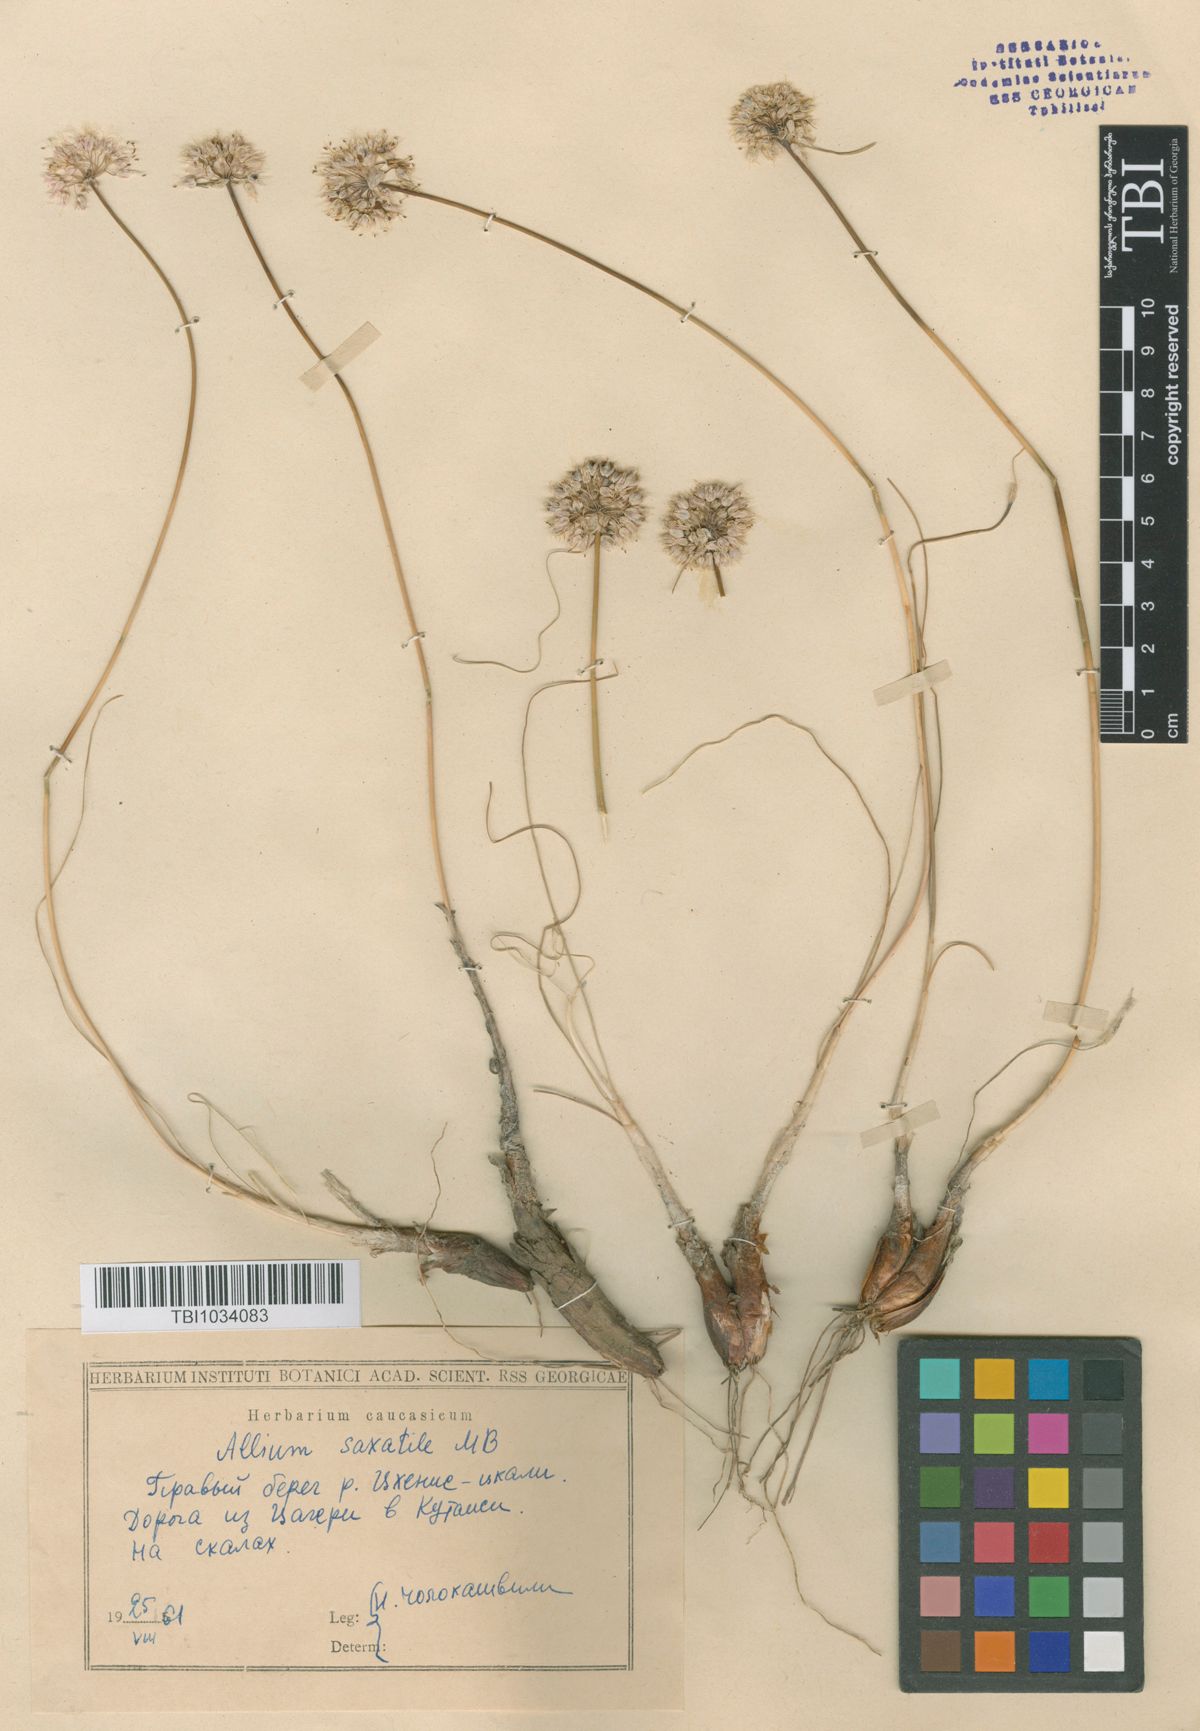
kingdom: Plantae
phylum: Tracheophyta
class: Liliopsida
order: Asparagales
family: Amaryllidaceae
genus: Allium
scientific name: Allium saxatile
